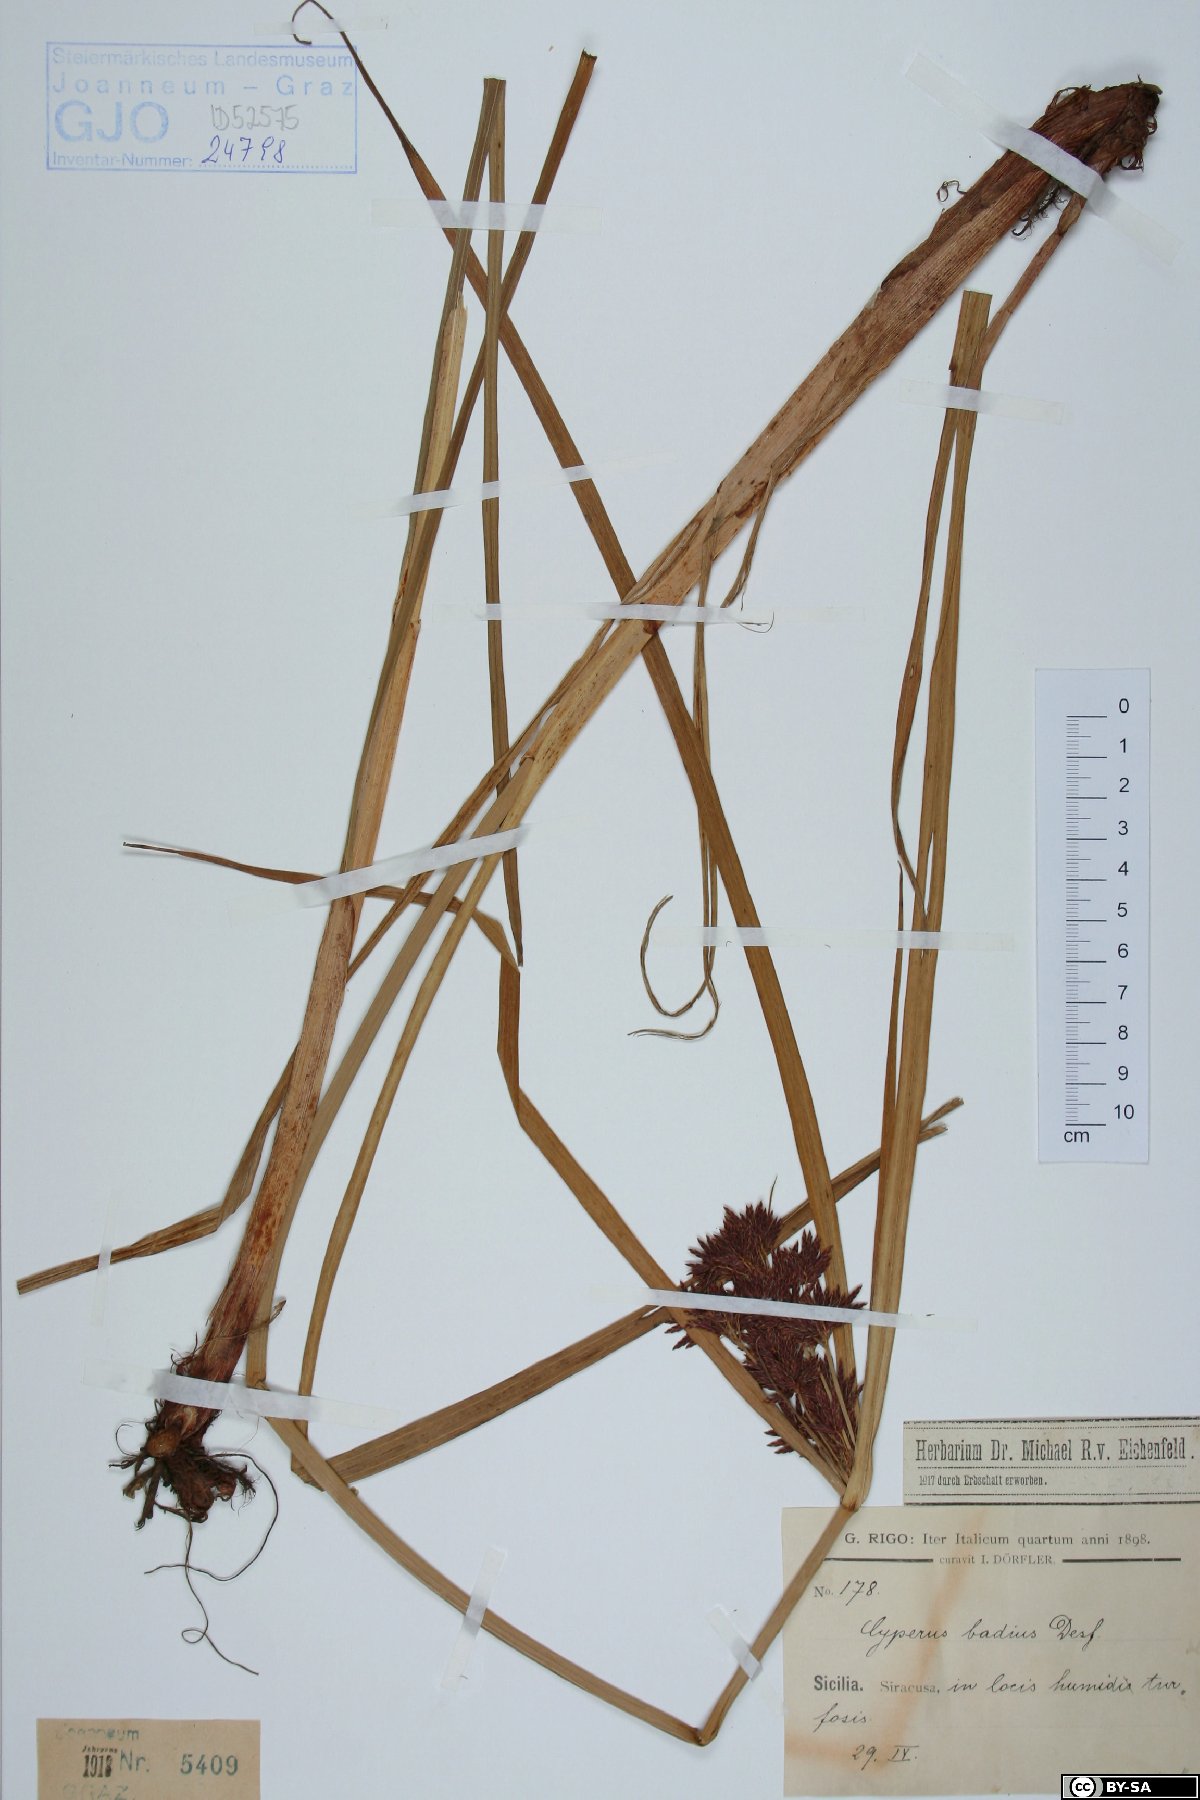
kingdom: Plantae
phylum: Tracheophyta
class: Liliopsida
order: Poales
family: Cyperaceae
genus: Cyperus
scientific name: Cyperus longus
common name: Galingale
